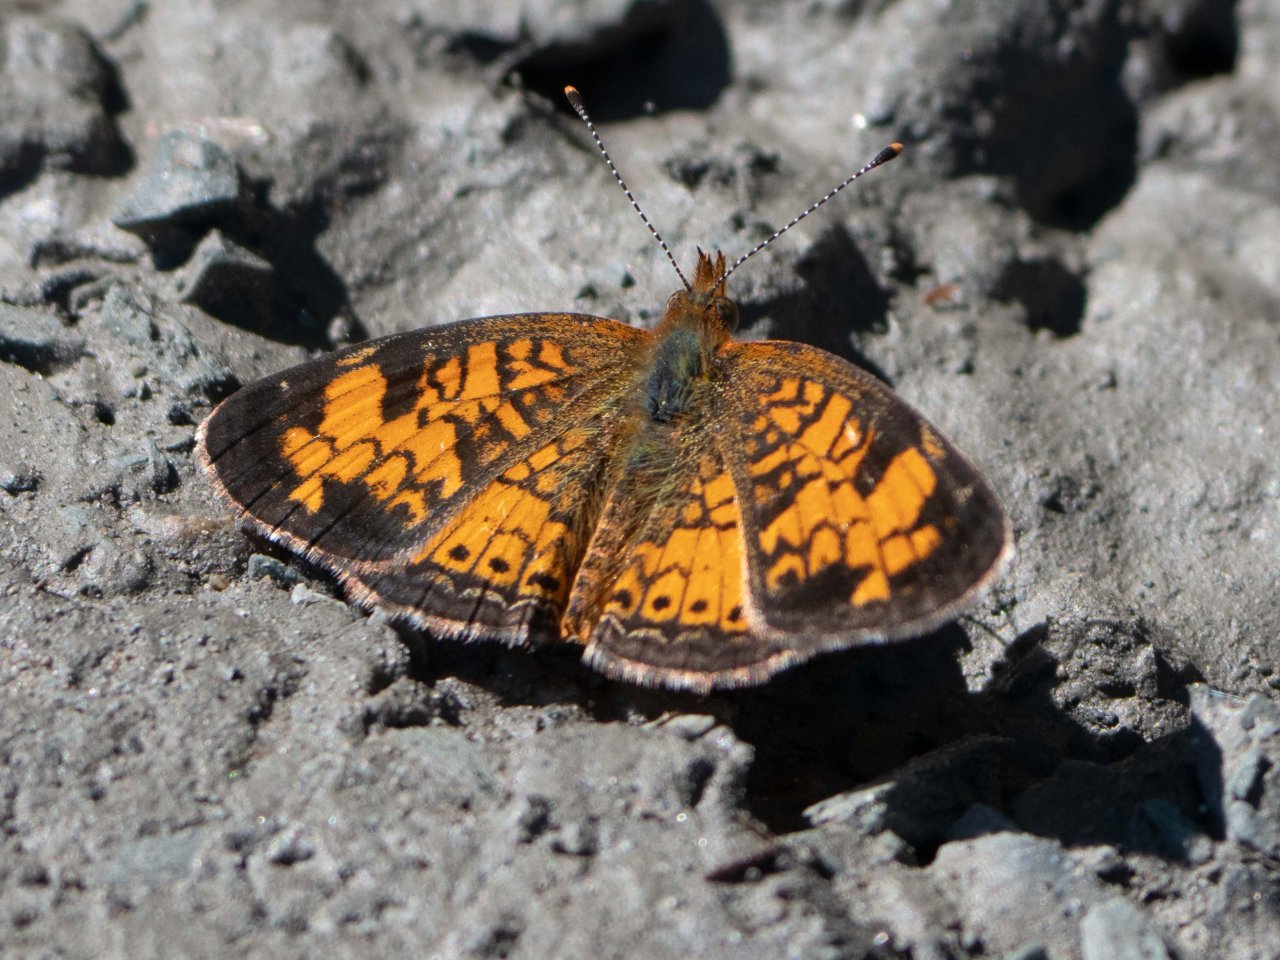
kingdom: Animalia
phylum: Arthropoda
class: Insecta
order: Lepidoptera
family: Nymphalidae
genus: Phyciodes
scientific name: Phyciodes
